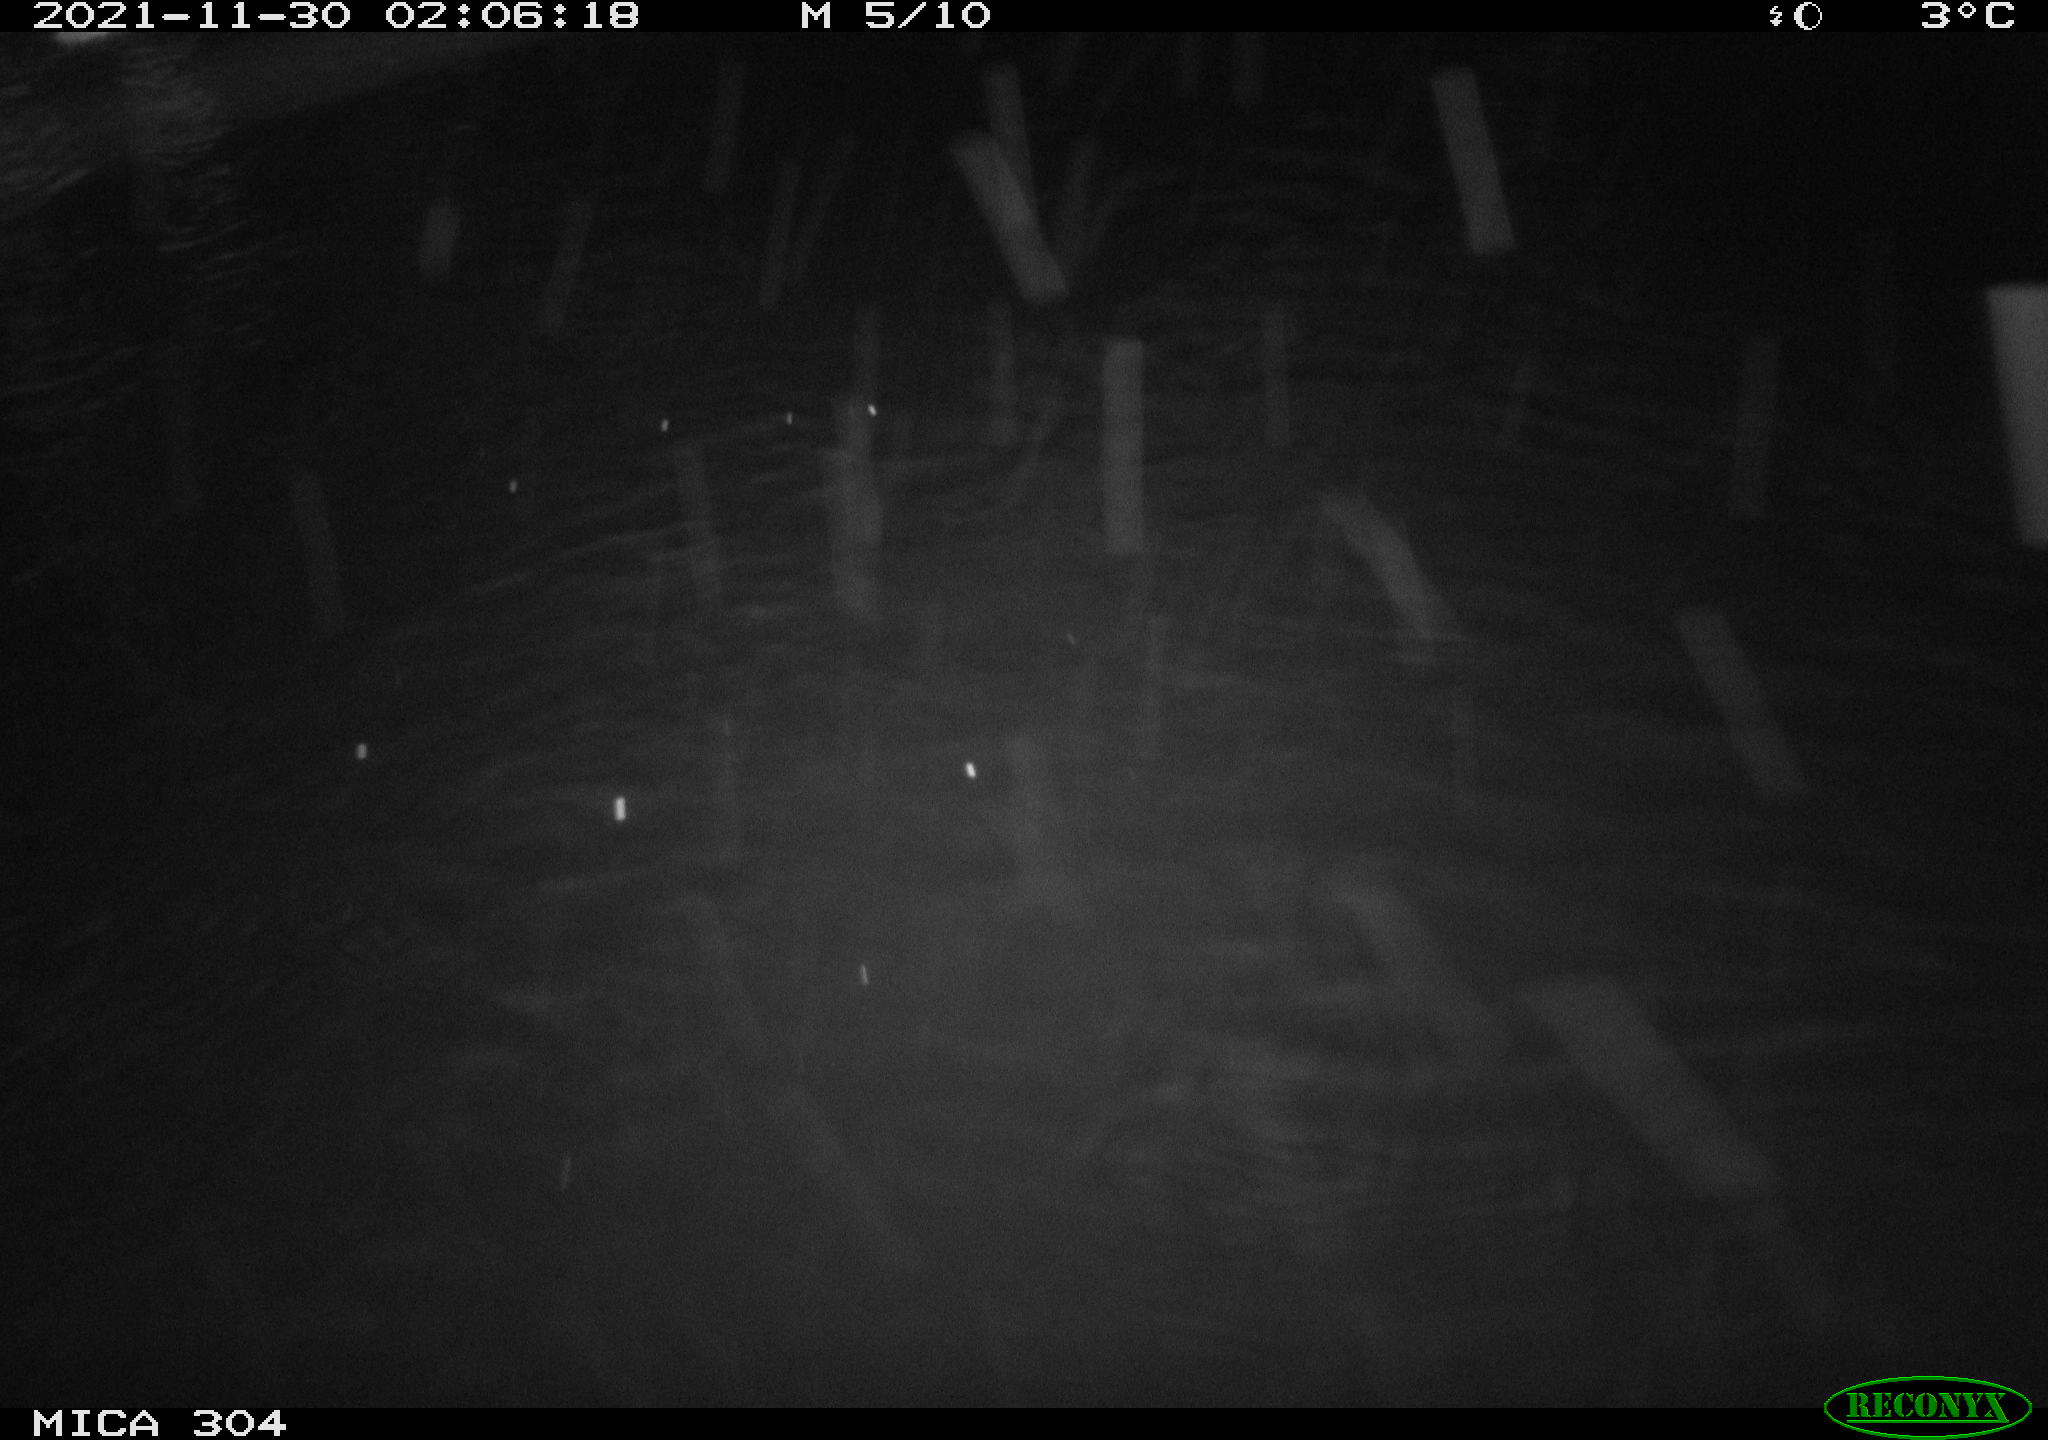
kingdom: Animalia
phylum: Chordata
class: Mammalia
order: Rodentia
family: Muridae
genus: Rattus
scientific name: Rattus norvegicus
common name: Brown rat
